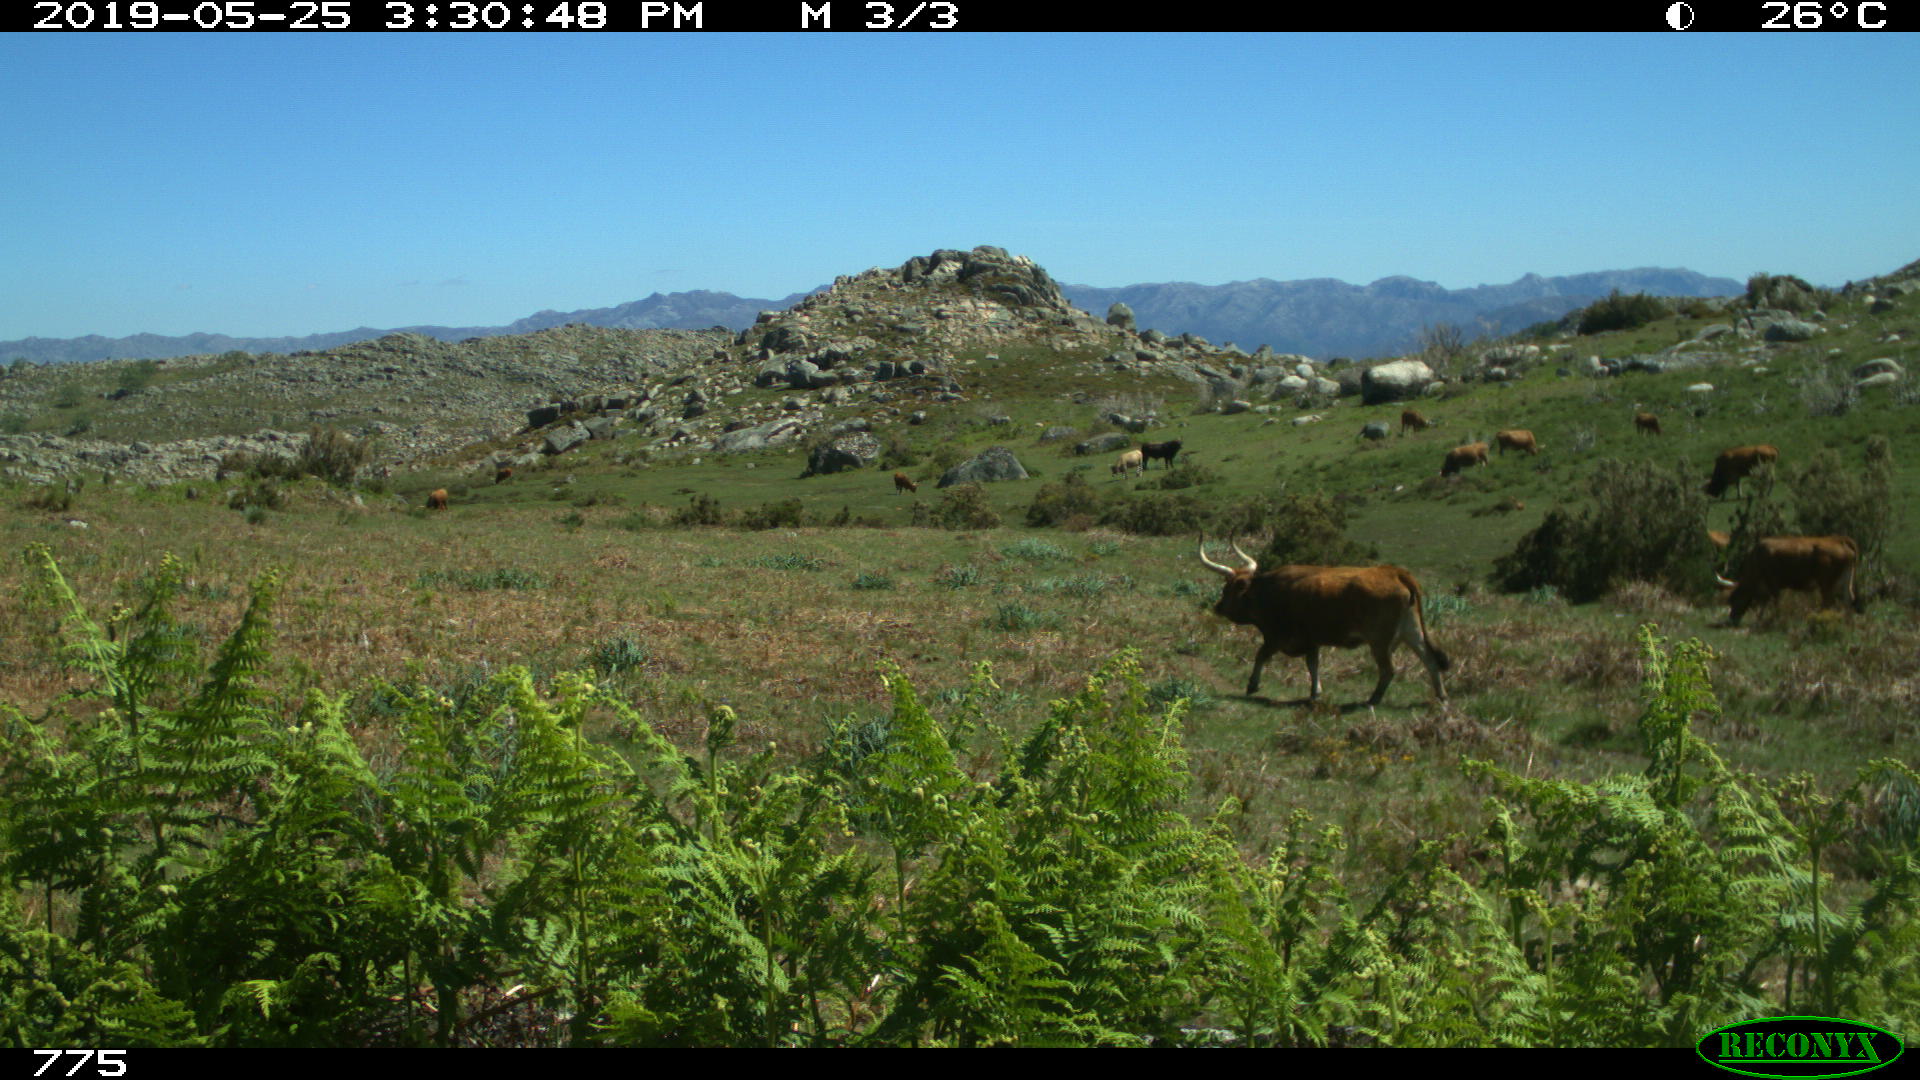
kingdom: Animalia
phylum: Chordata
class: Mammalia
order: Artiodactyla
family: Bovidae
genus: Bos
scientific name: Bos taurus
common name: Domesticated cattle
